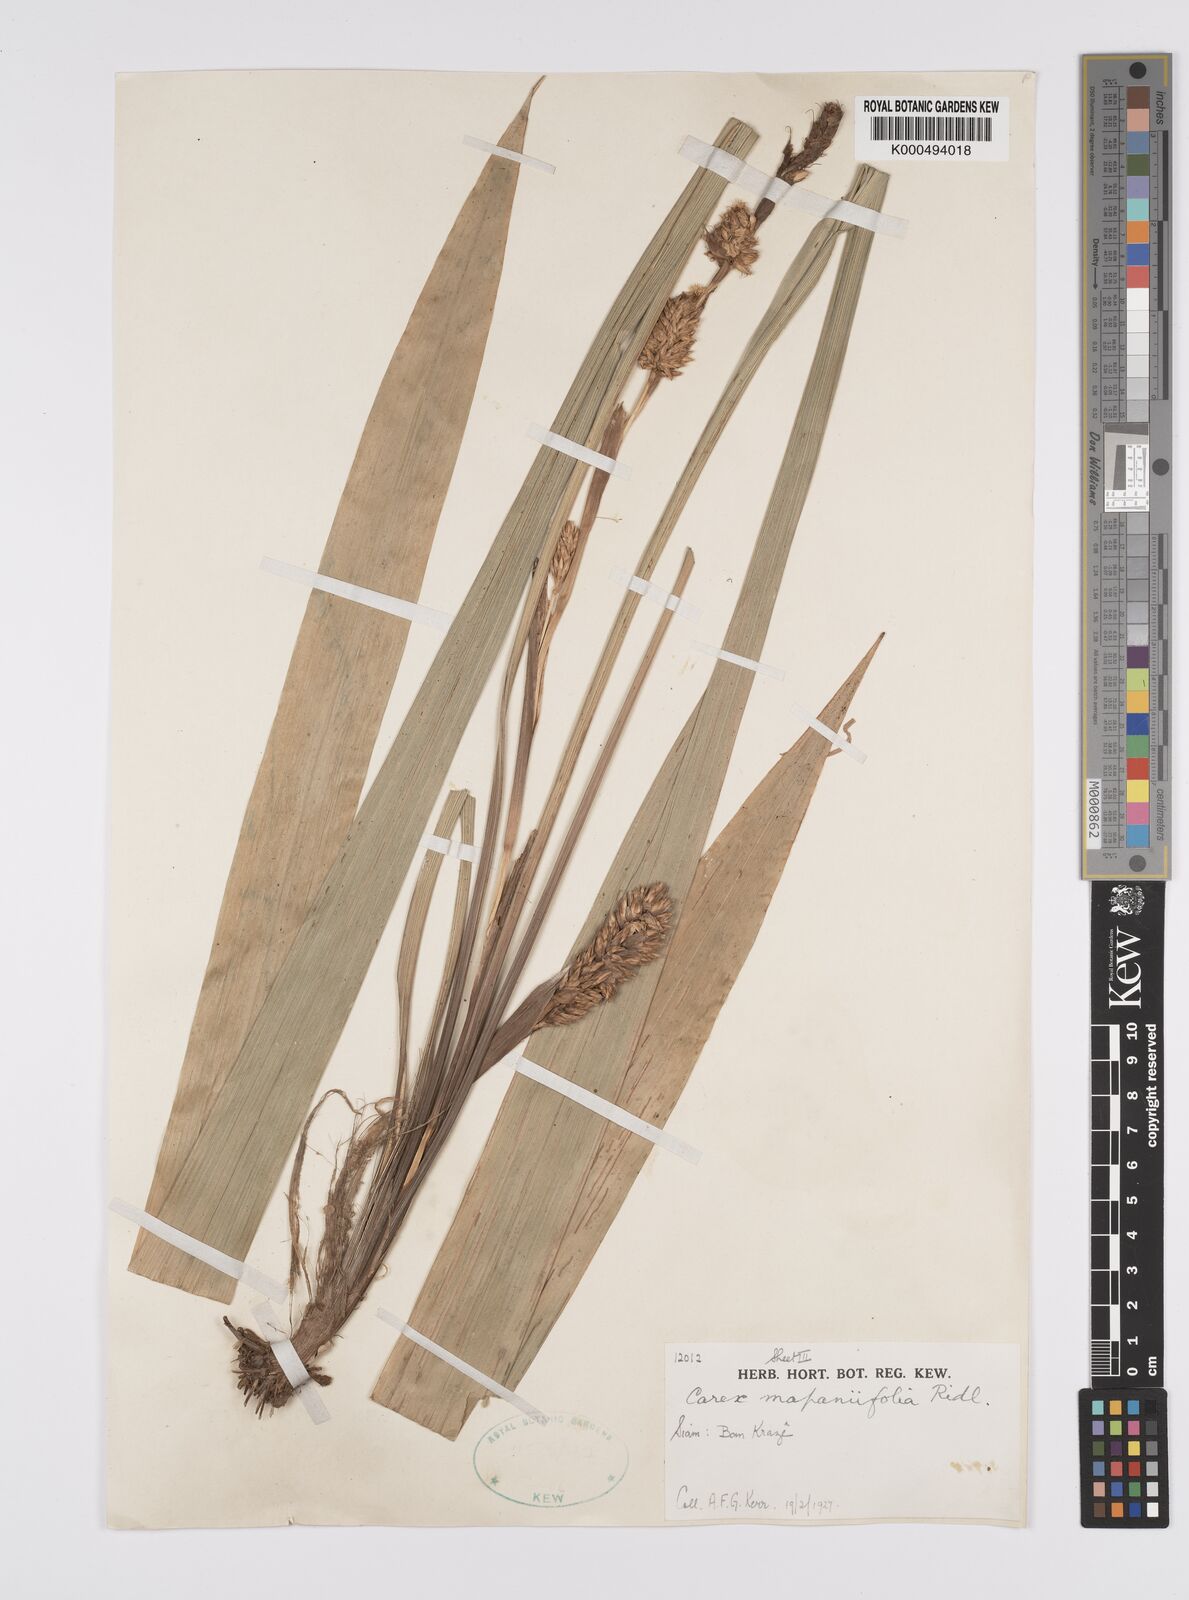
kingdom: Plantae
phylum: Tracheophyta
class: Liliopsida
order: Poales
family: Cyperaceae
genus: Carex
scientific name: Carex helferi
